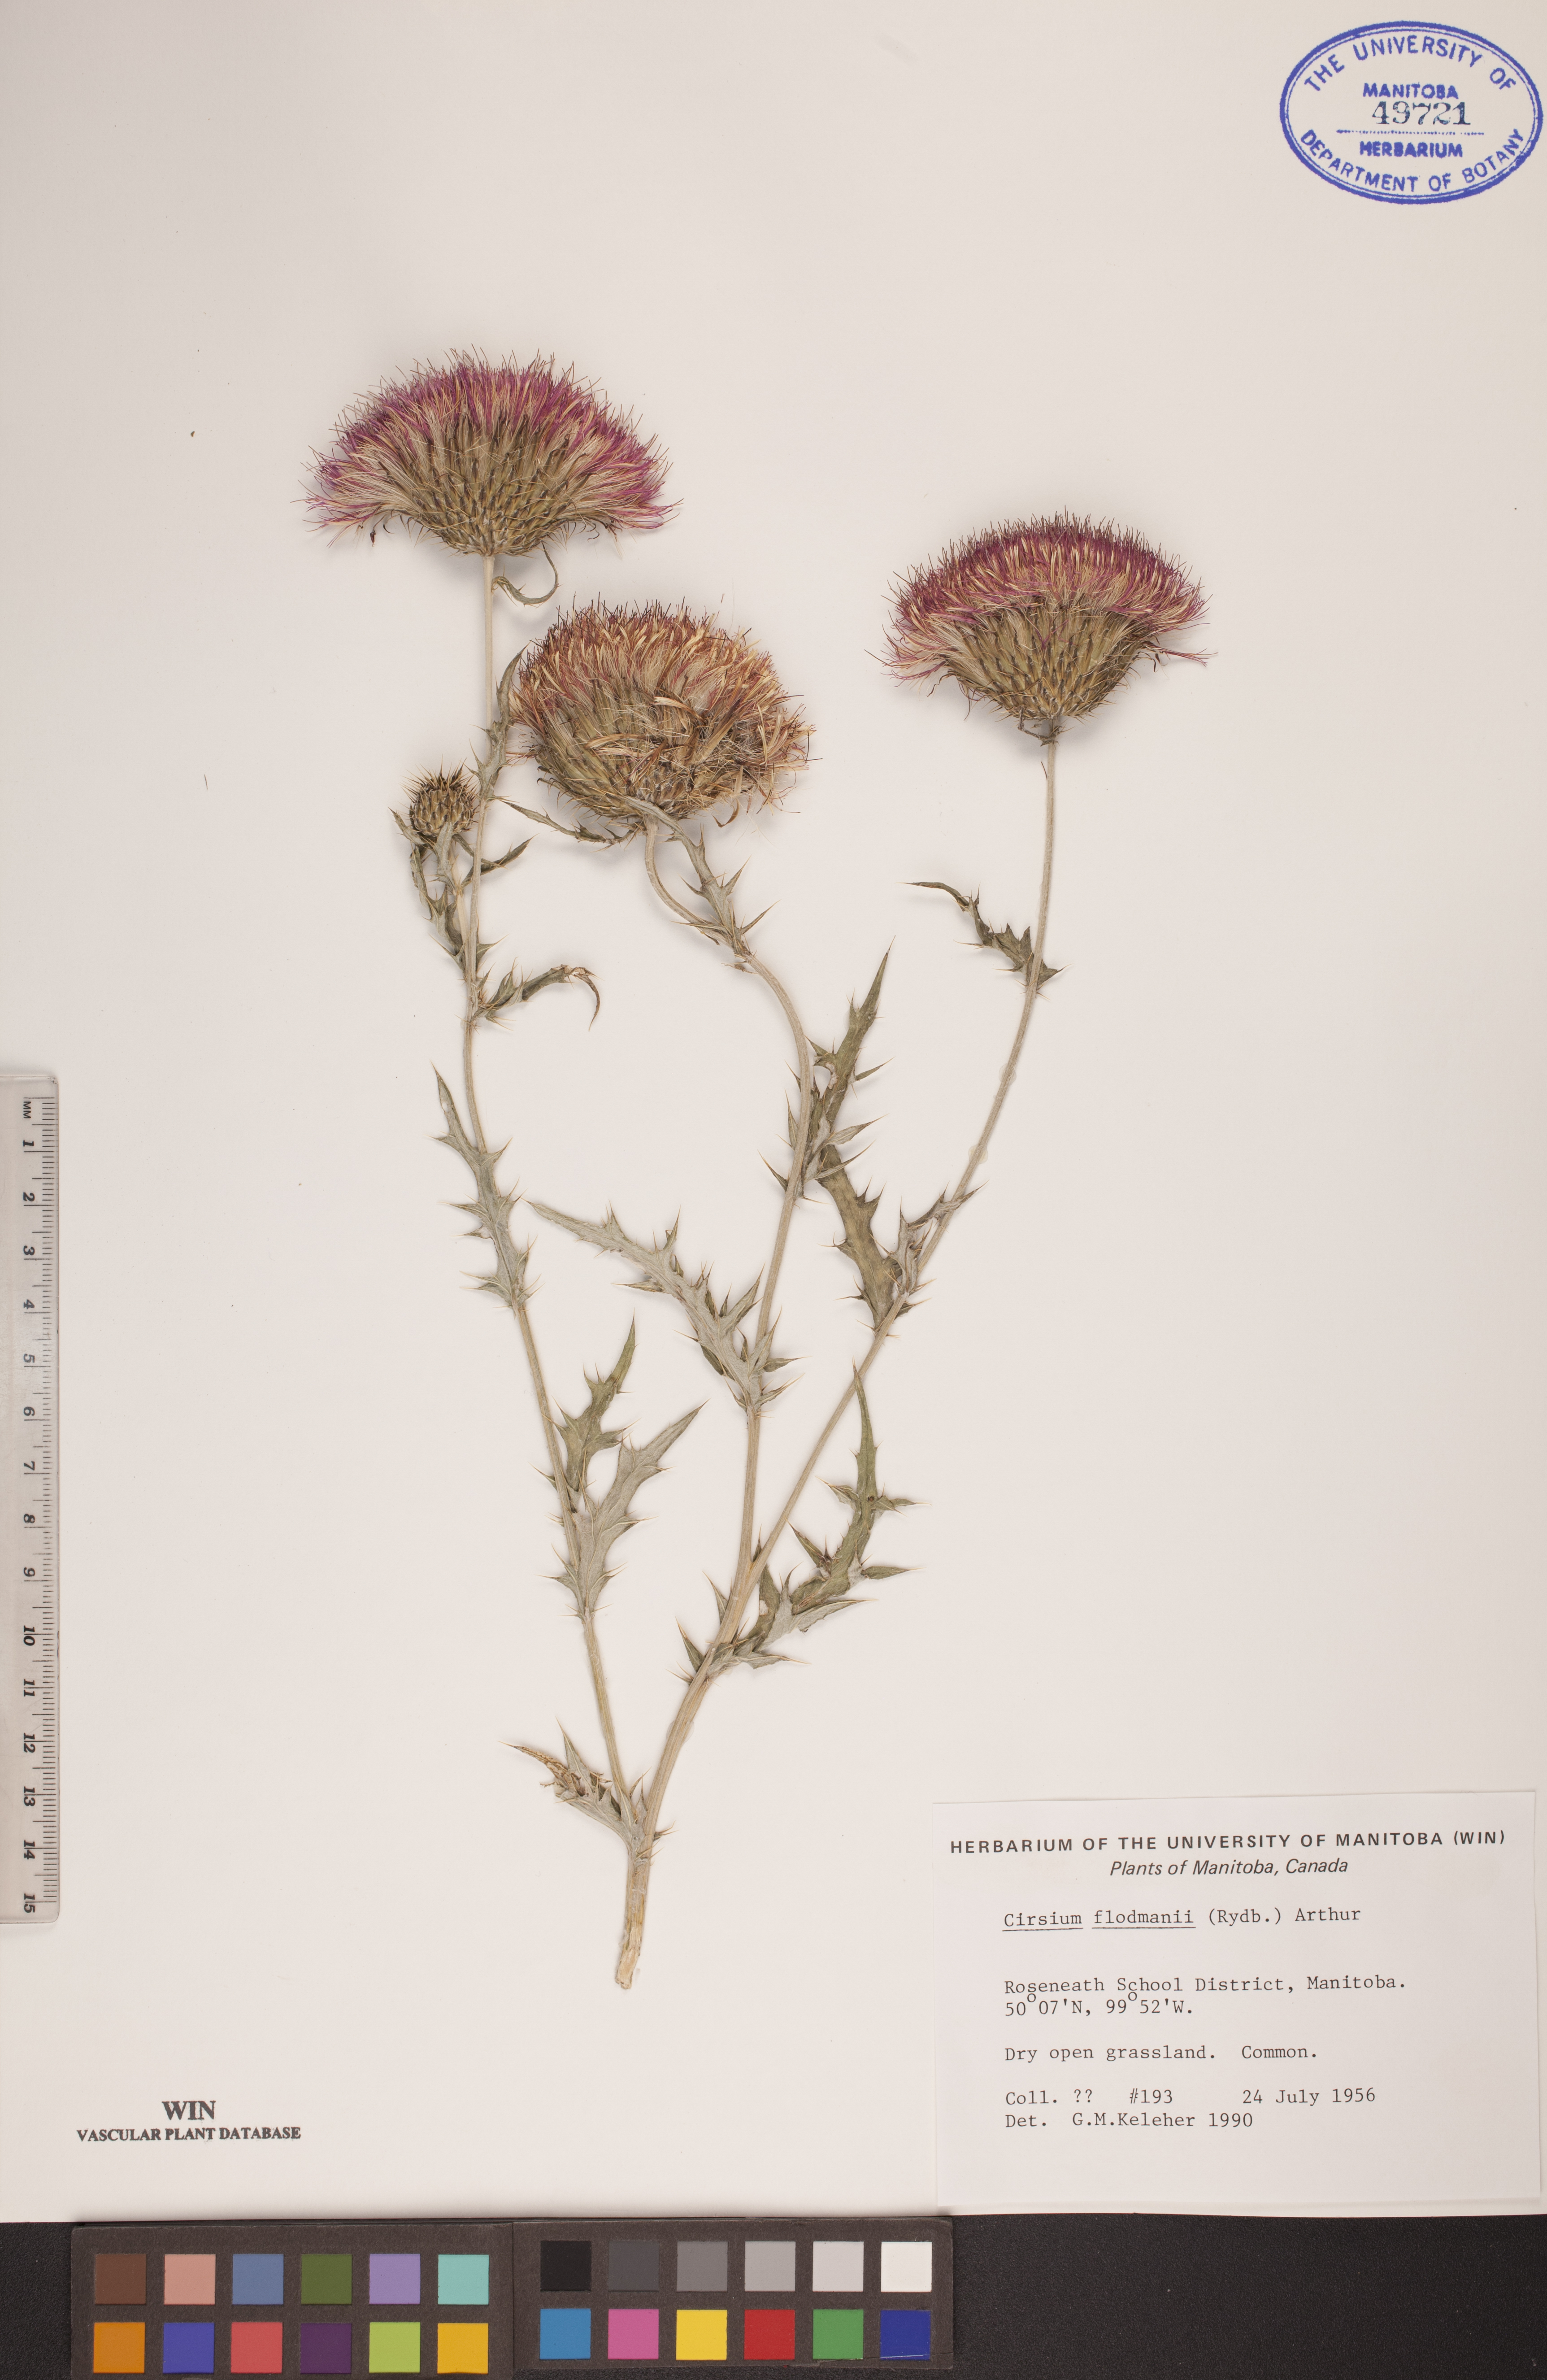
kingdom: Plantae
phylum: Tracheophyta
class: Magnoliopsida
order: Asterales
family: Asteraceae
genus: Cirsium
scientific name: Cirsium flodmanii
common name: Flodman's thistle
